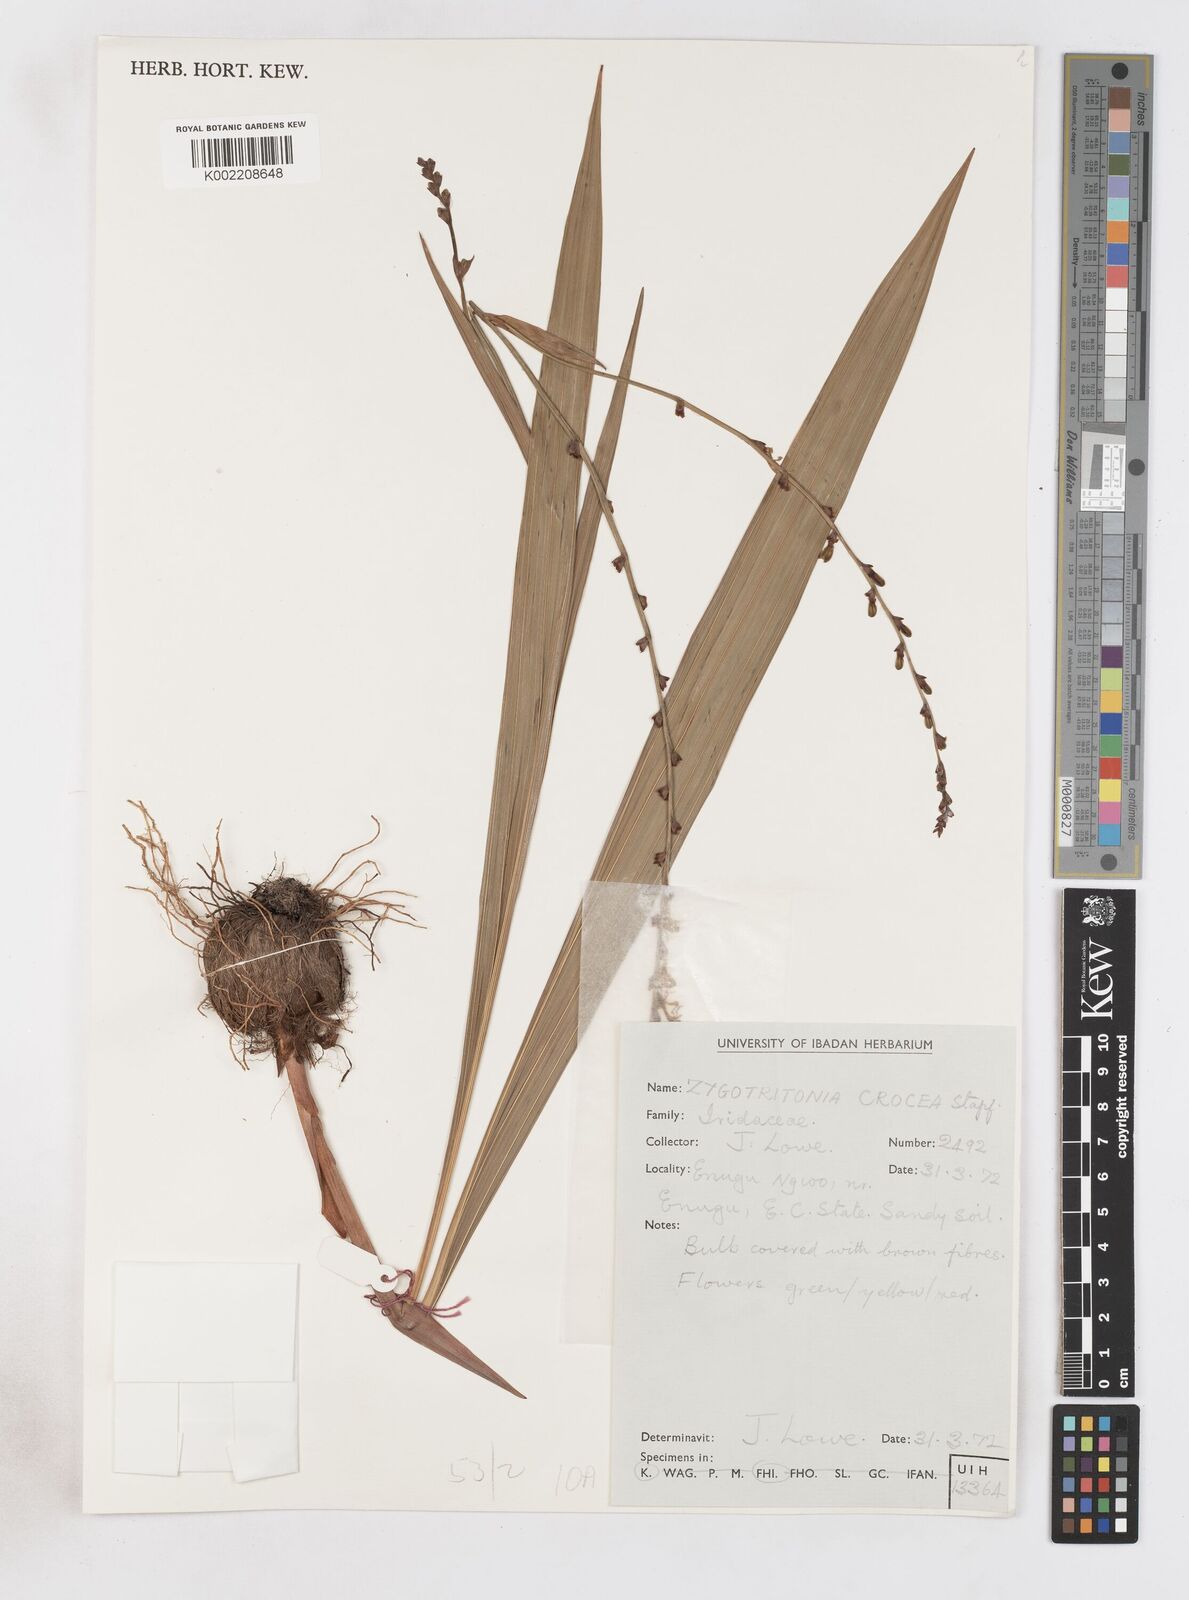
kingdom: Plantae
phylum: Tracheophyta
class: Liliopsida
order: Asparagales
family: Iridaceae
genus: Savannosiphon
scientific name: Savannosiphon
